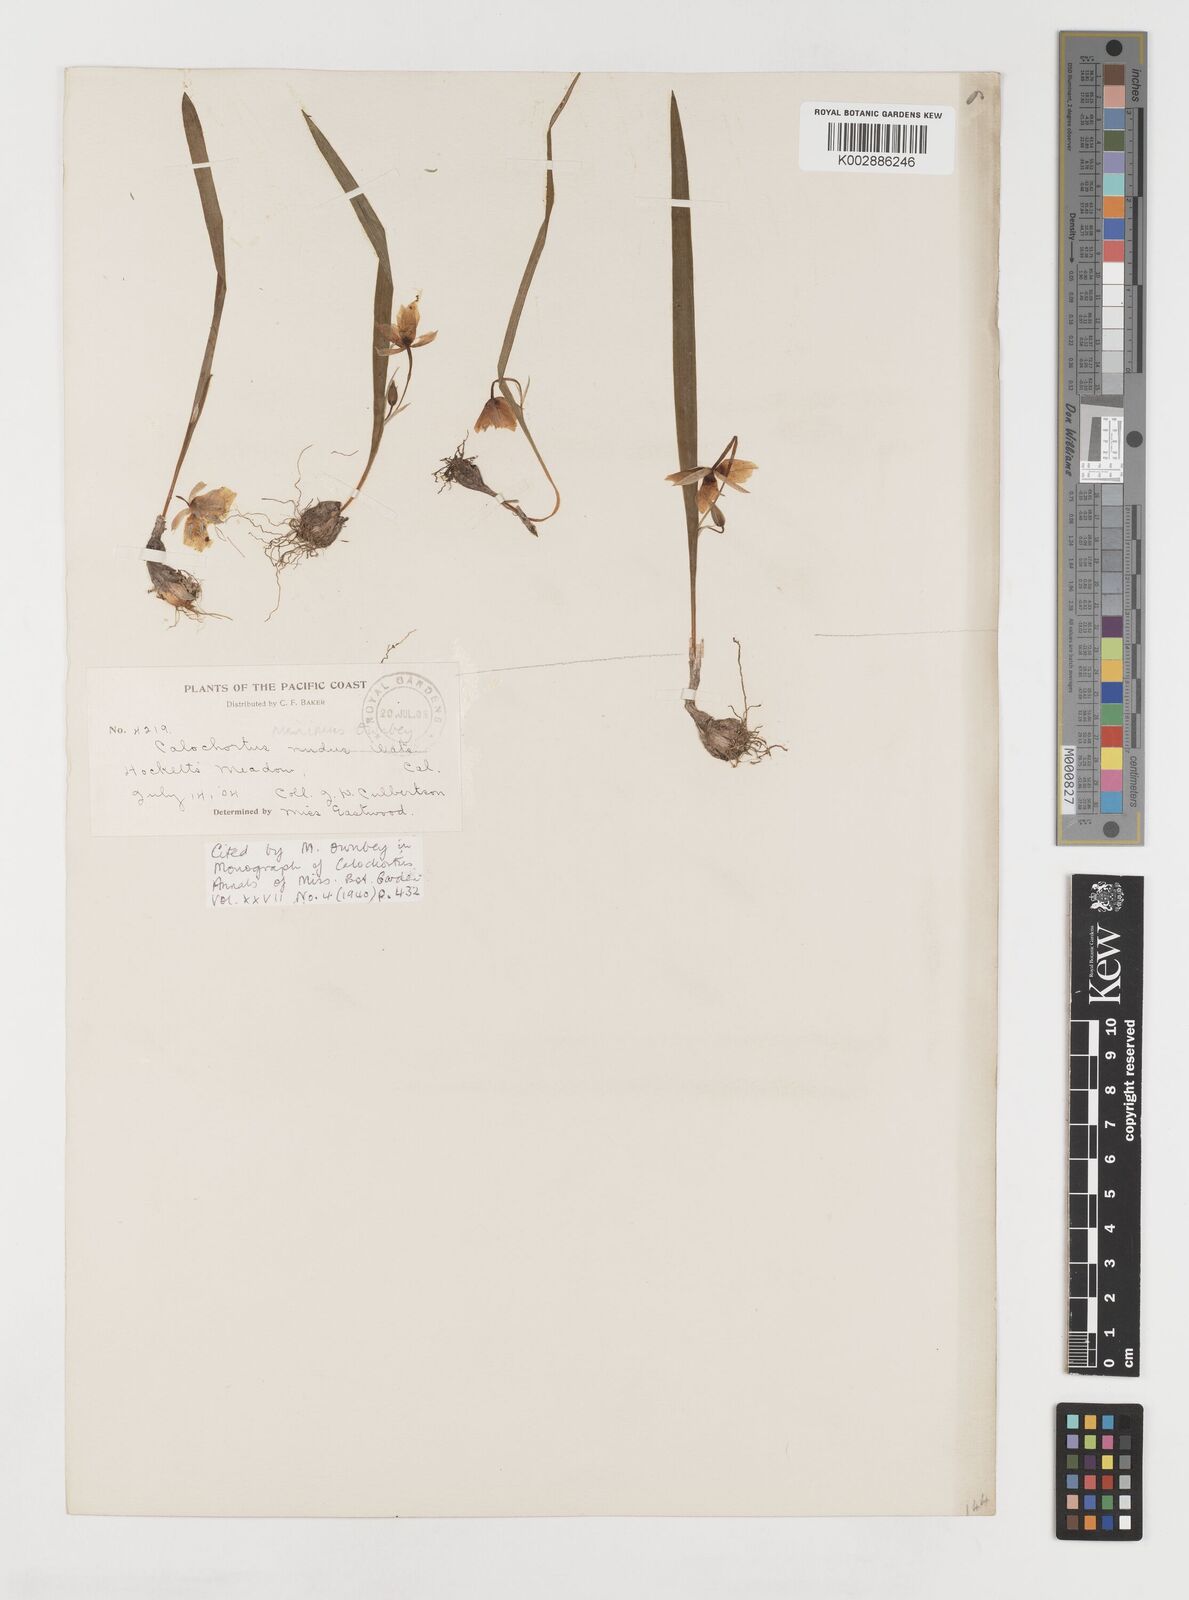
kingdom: Plantae
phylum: Tracheophyta
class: Liliopsida
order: Liliales
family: Liliaceae
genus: Calochortus
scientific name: Calochortus minimus
